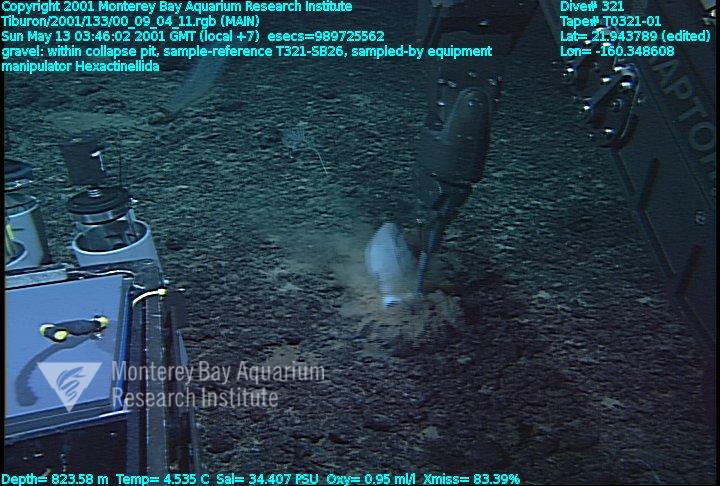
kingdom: Animalia
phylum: Porifera
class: Hexactinellida
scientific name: Hexactinellida
